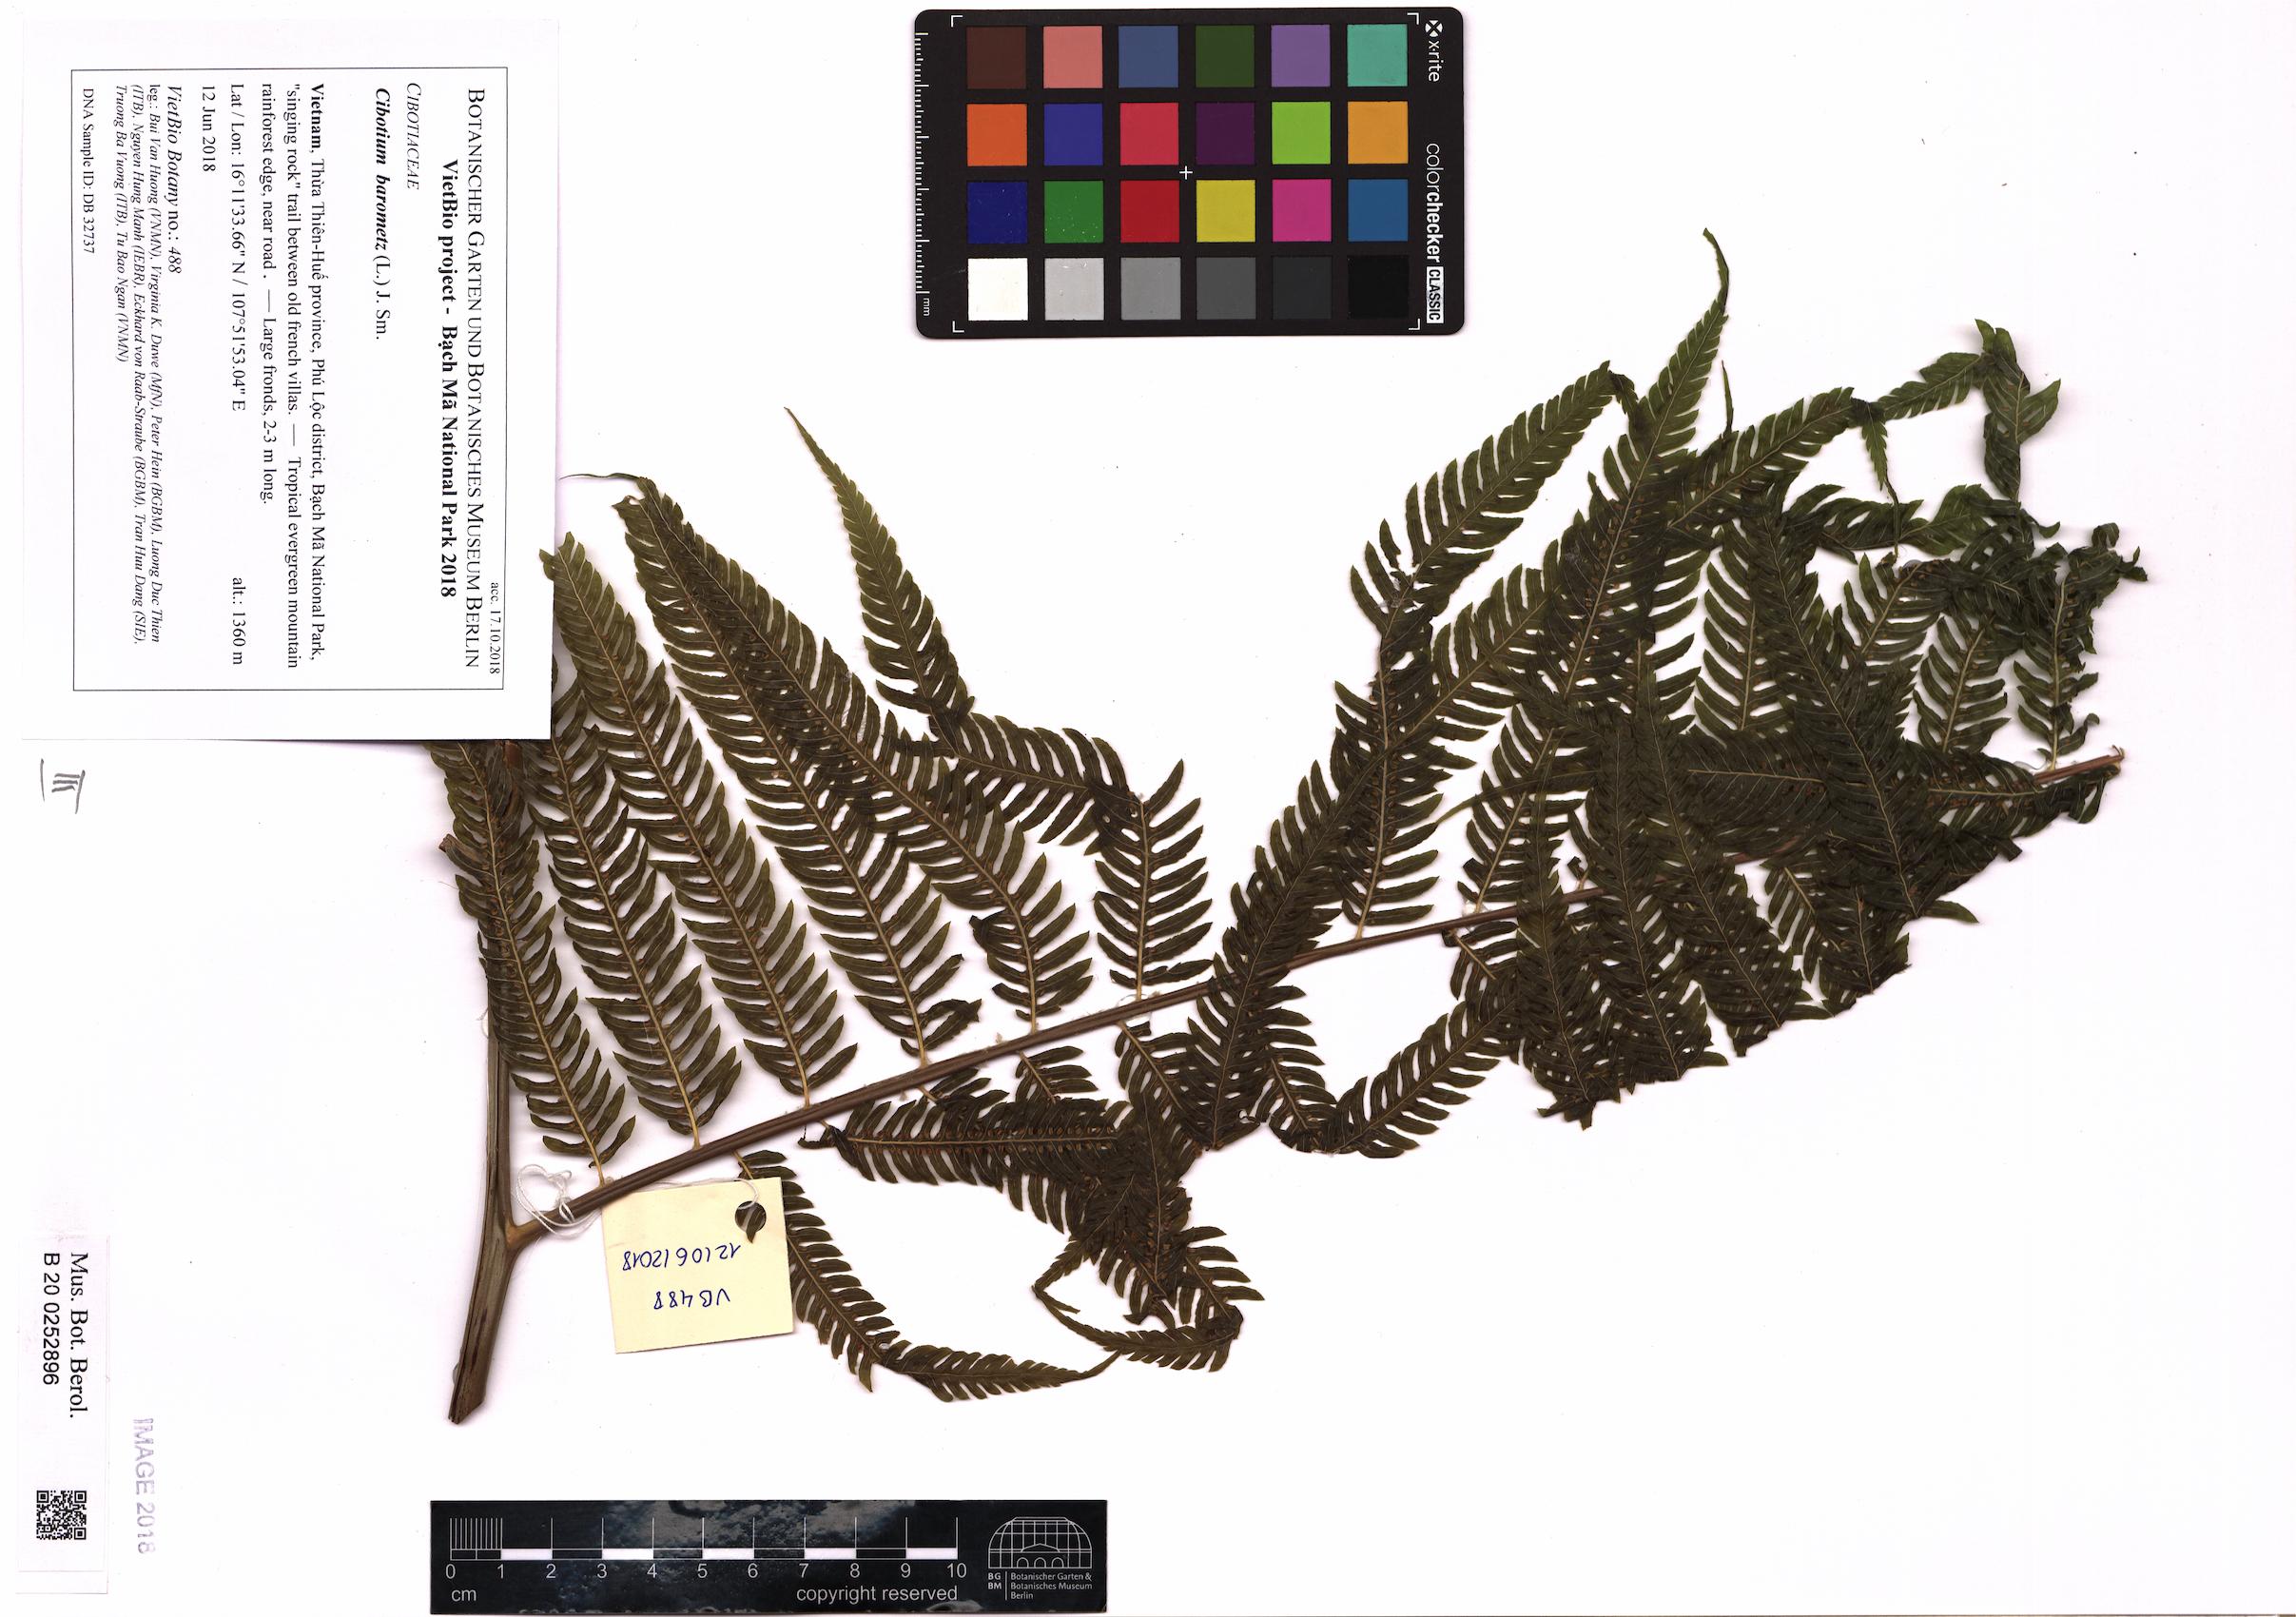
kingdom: Plantae
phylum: Tracheophyta
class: Polypodiopsida
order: Cyatheales
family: Cibotiaceae
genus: Cibotium
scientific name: Cibotium barometz
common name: Scythian-lamb
